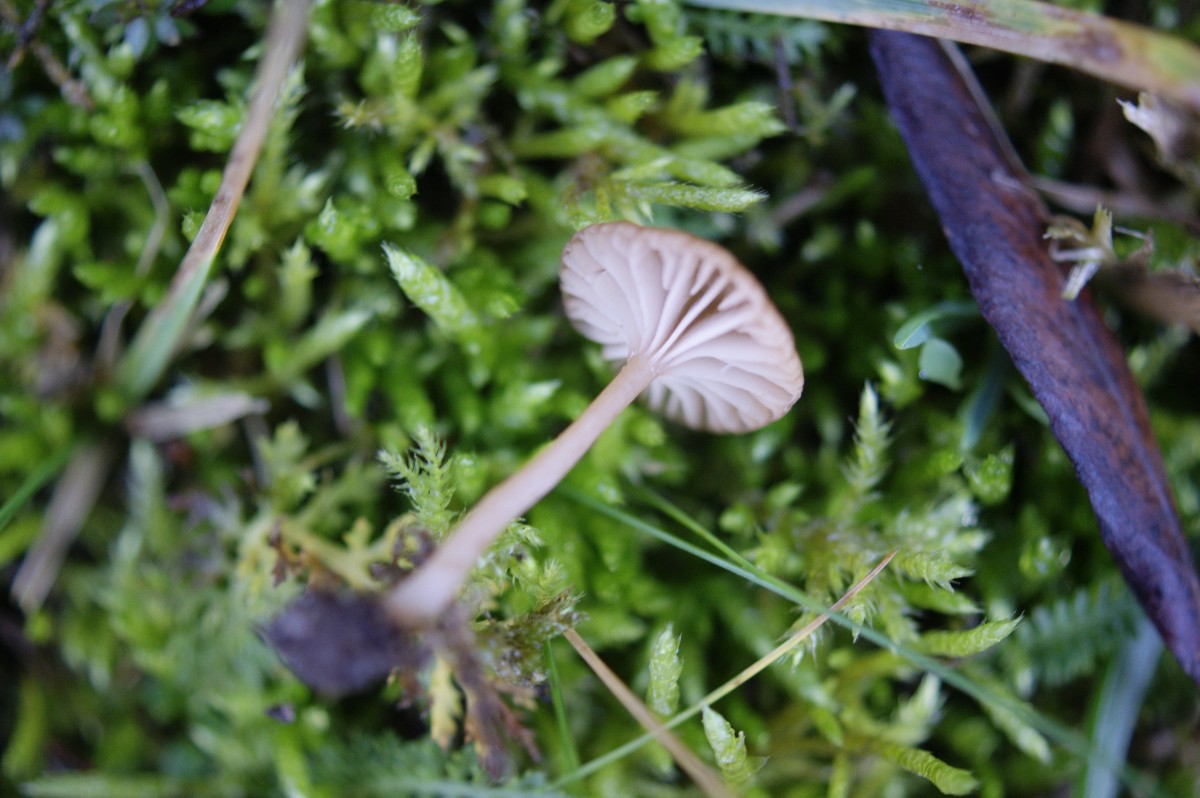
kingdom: Fungi
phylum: Basidiomycota
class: Agaricomycetes
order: Agaricales
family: Tricholomataceae
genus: Omphalina
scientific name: Omphalina pyxidata
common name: rødbrun navlehat
